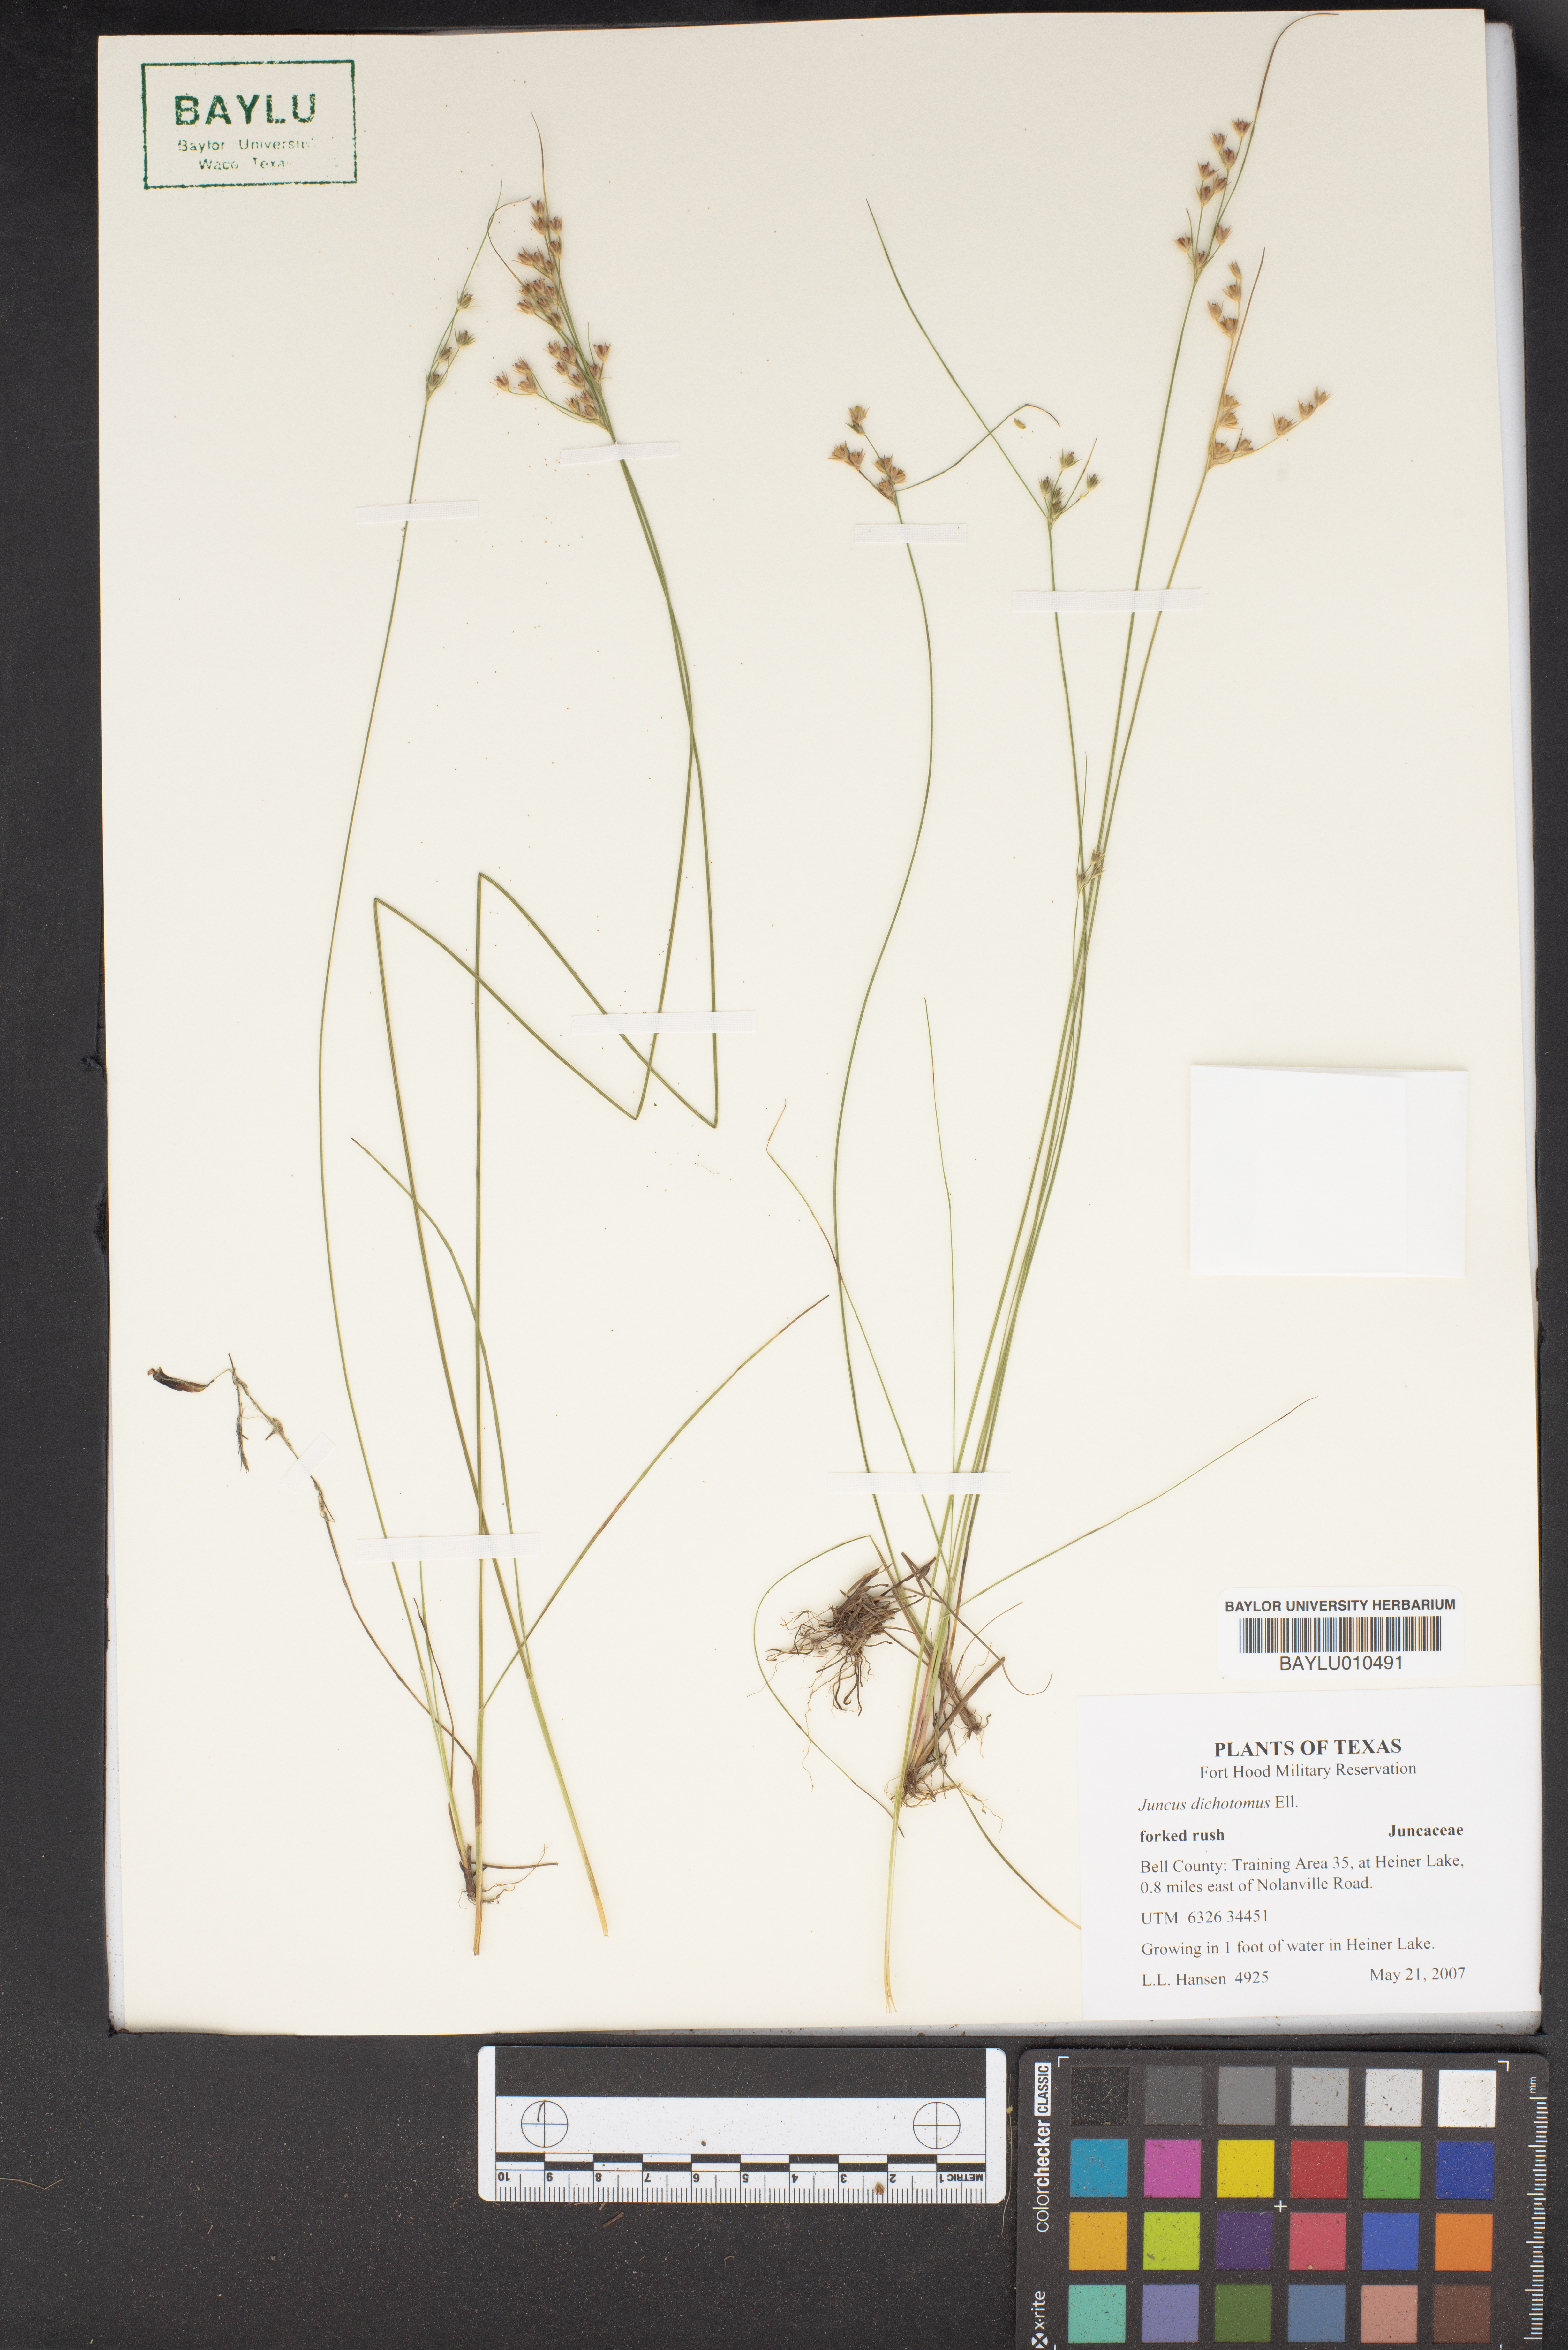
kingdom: Plantae
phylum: Tracheophyta
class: Liliopsida
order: Poales
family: Juncaceae
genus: Juncus
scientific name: Juncus dichotomus
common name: Forked rush
